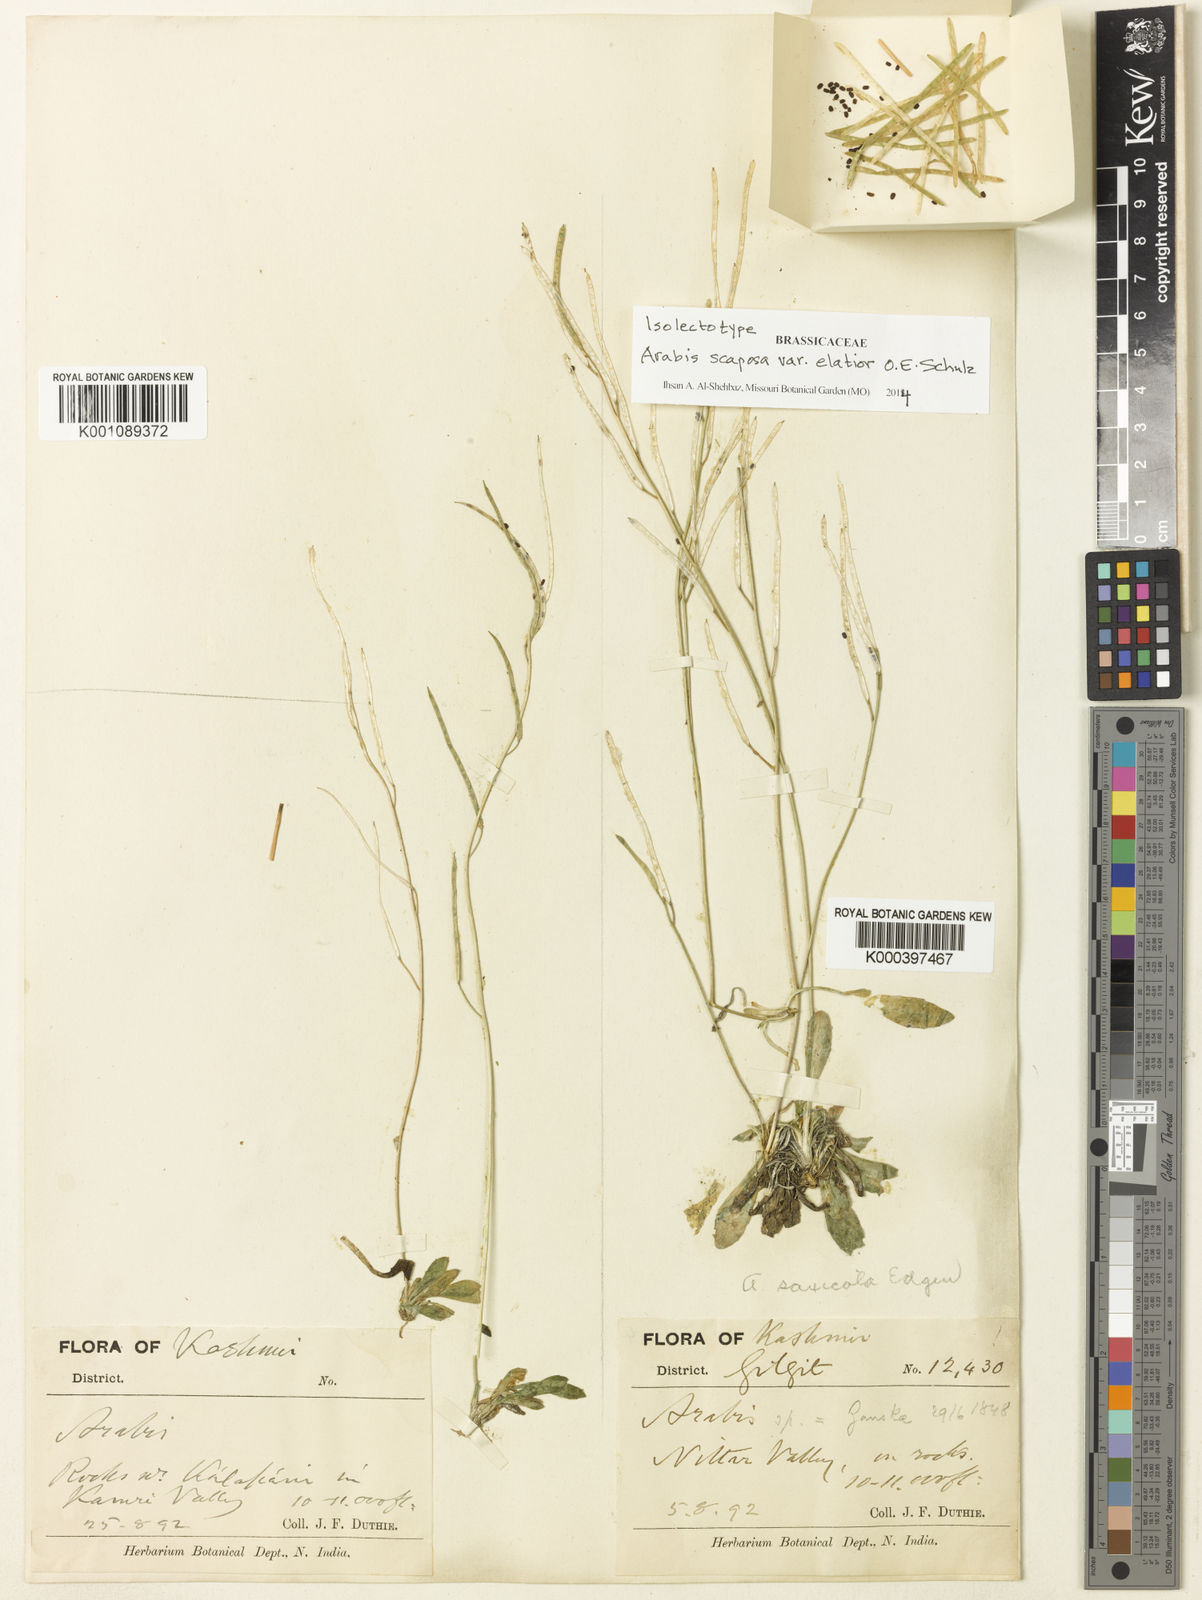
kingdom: Plantae
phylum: Tracheophyta
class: Magnoliopsida
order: Brassicales
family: Brassicaceae
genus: Scapiarabis
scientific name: Scapiarabis saxicola
